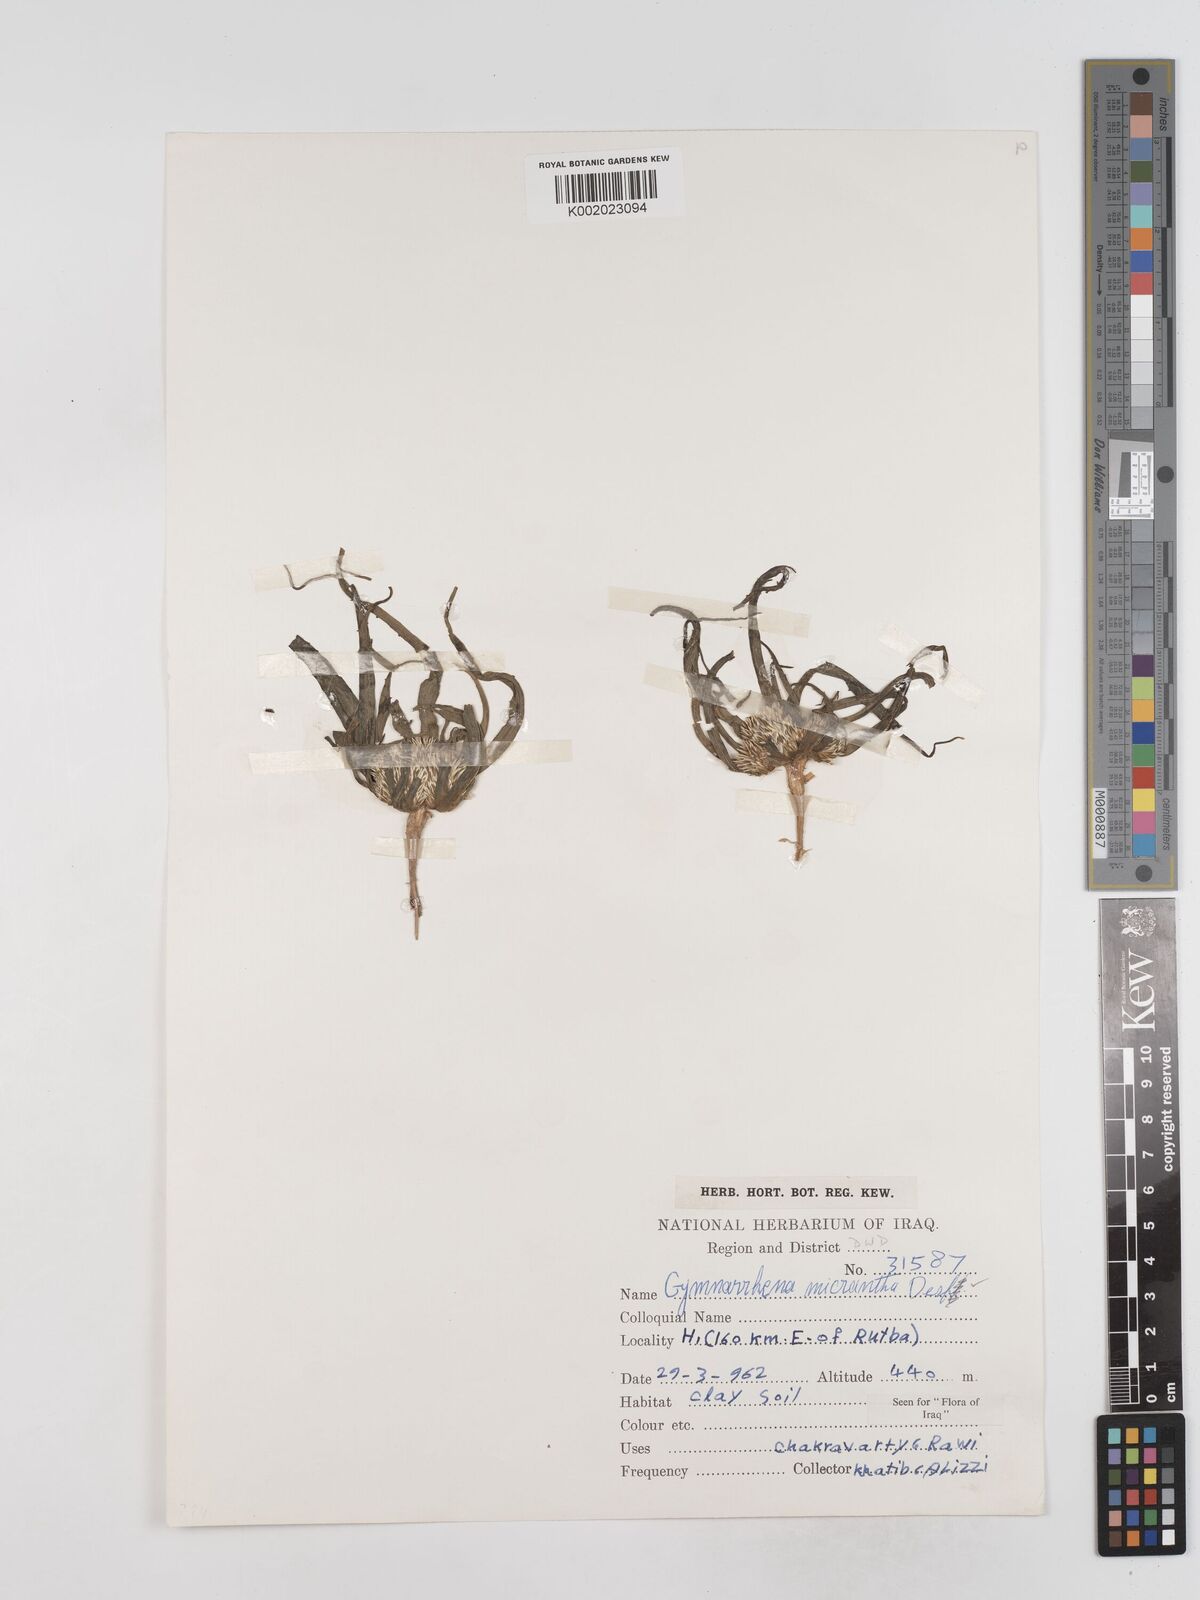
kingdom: Plantae
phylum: Tracheophyta
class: Magnoliopsida
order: Asterales
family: Asteraceae
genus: Gymnarrhena
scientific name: Gymnarrhena micrantha
